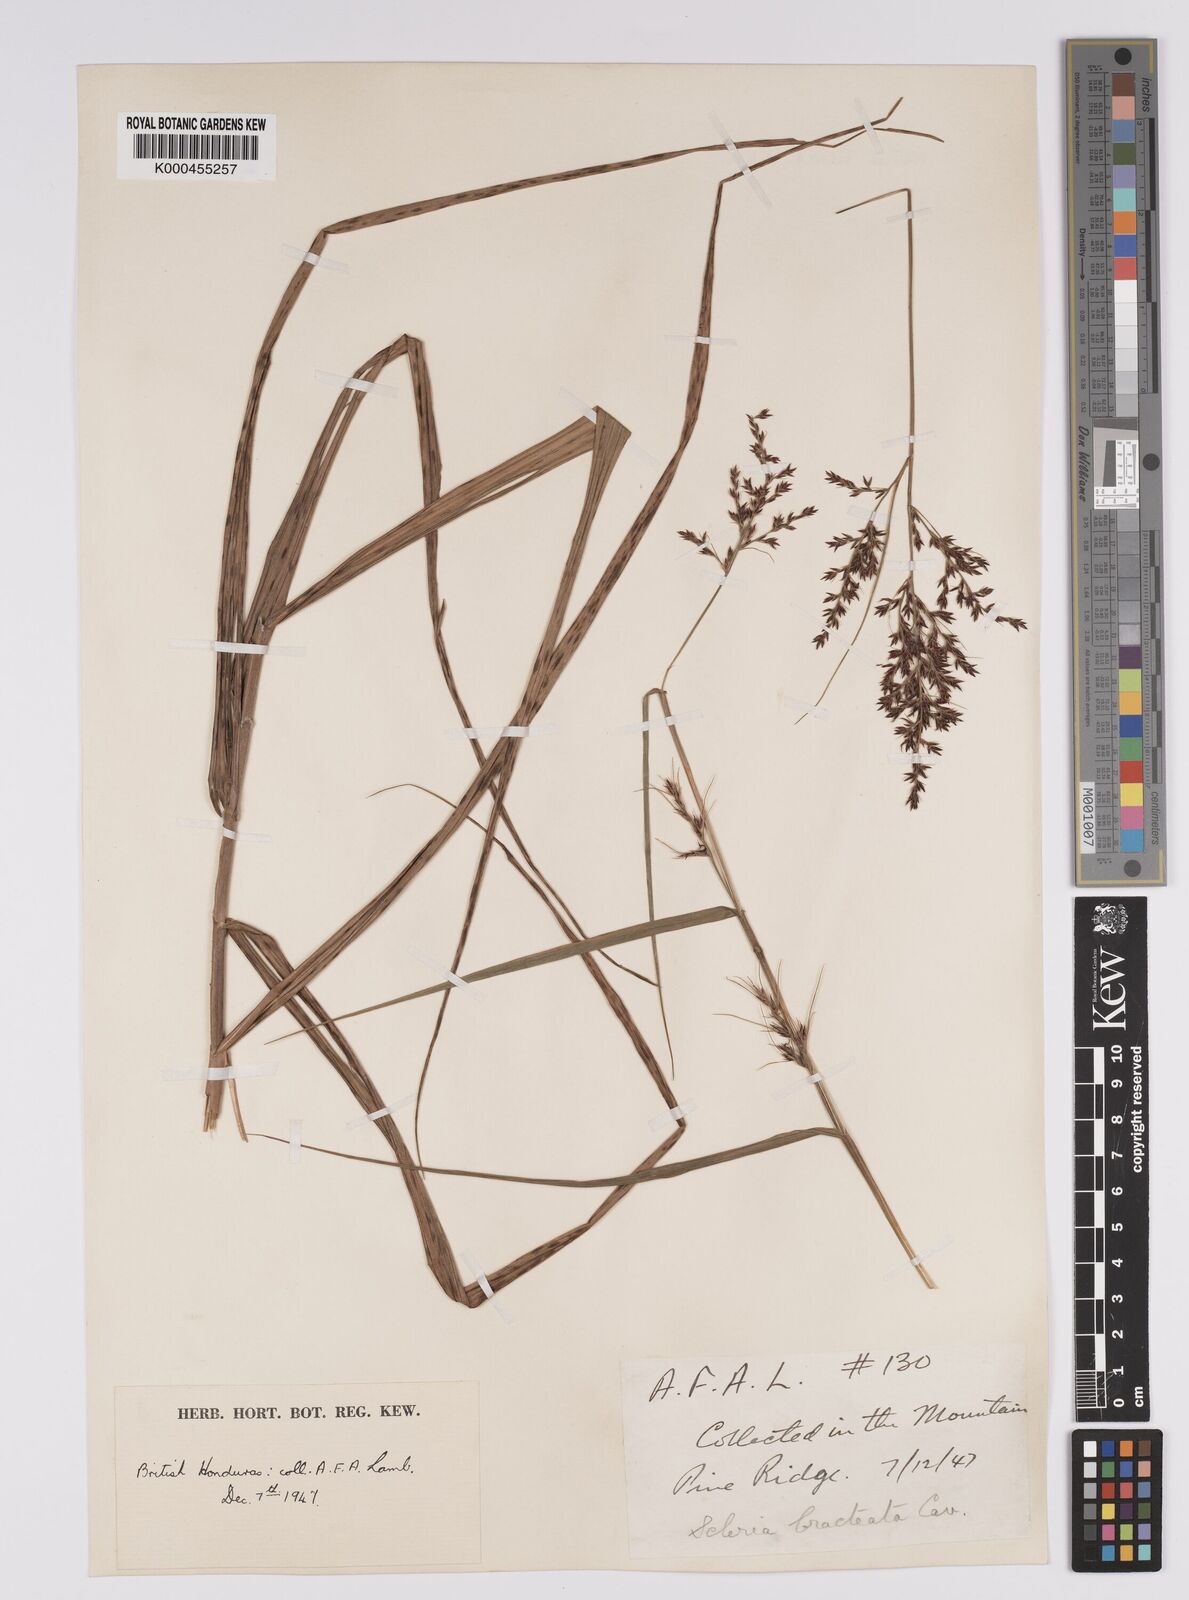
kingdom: Plantae
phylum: Tracheophyta
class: Liliopsida
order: Poales
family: Cyperaceae
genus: Scleria
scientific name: Scleria bracteata
